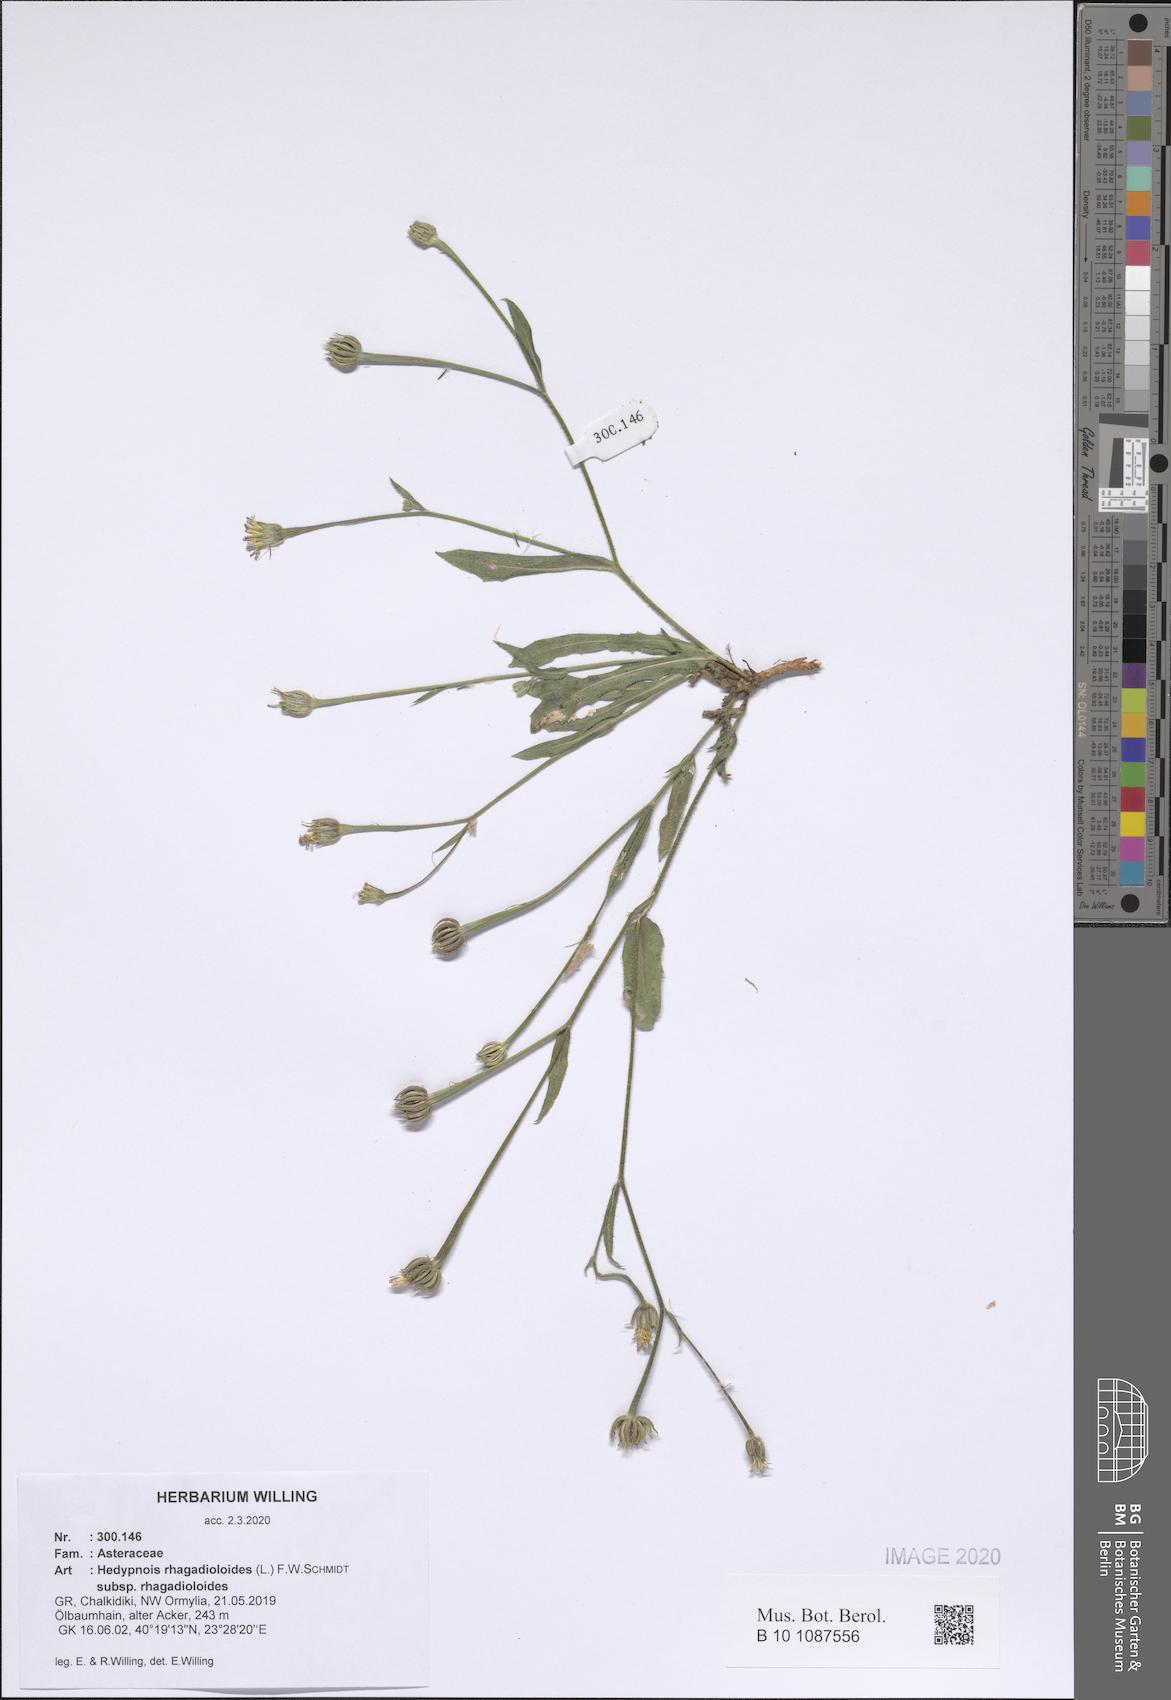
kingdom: Plantae
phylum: Tracheophyta
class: Magnoliopsida
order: Asterales
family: Asteraceae
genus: Hedypnois
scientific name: Hedypnois rhagadioloides
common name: Cretan weed
